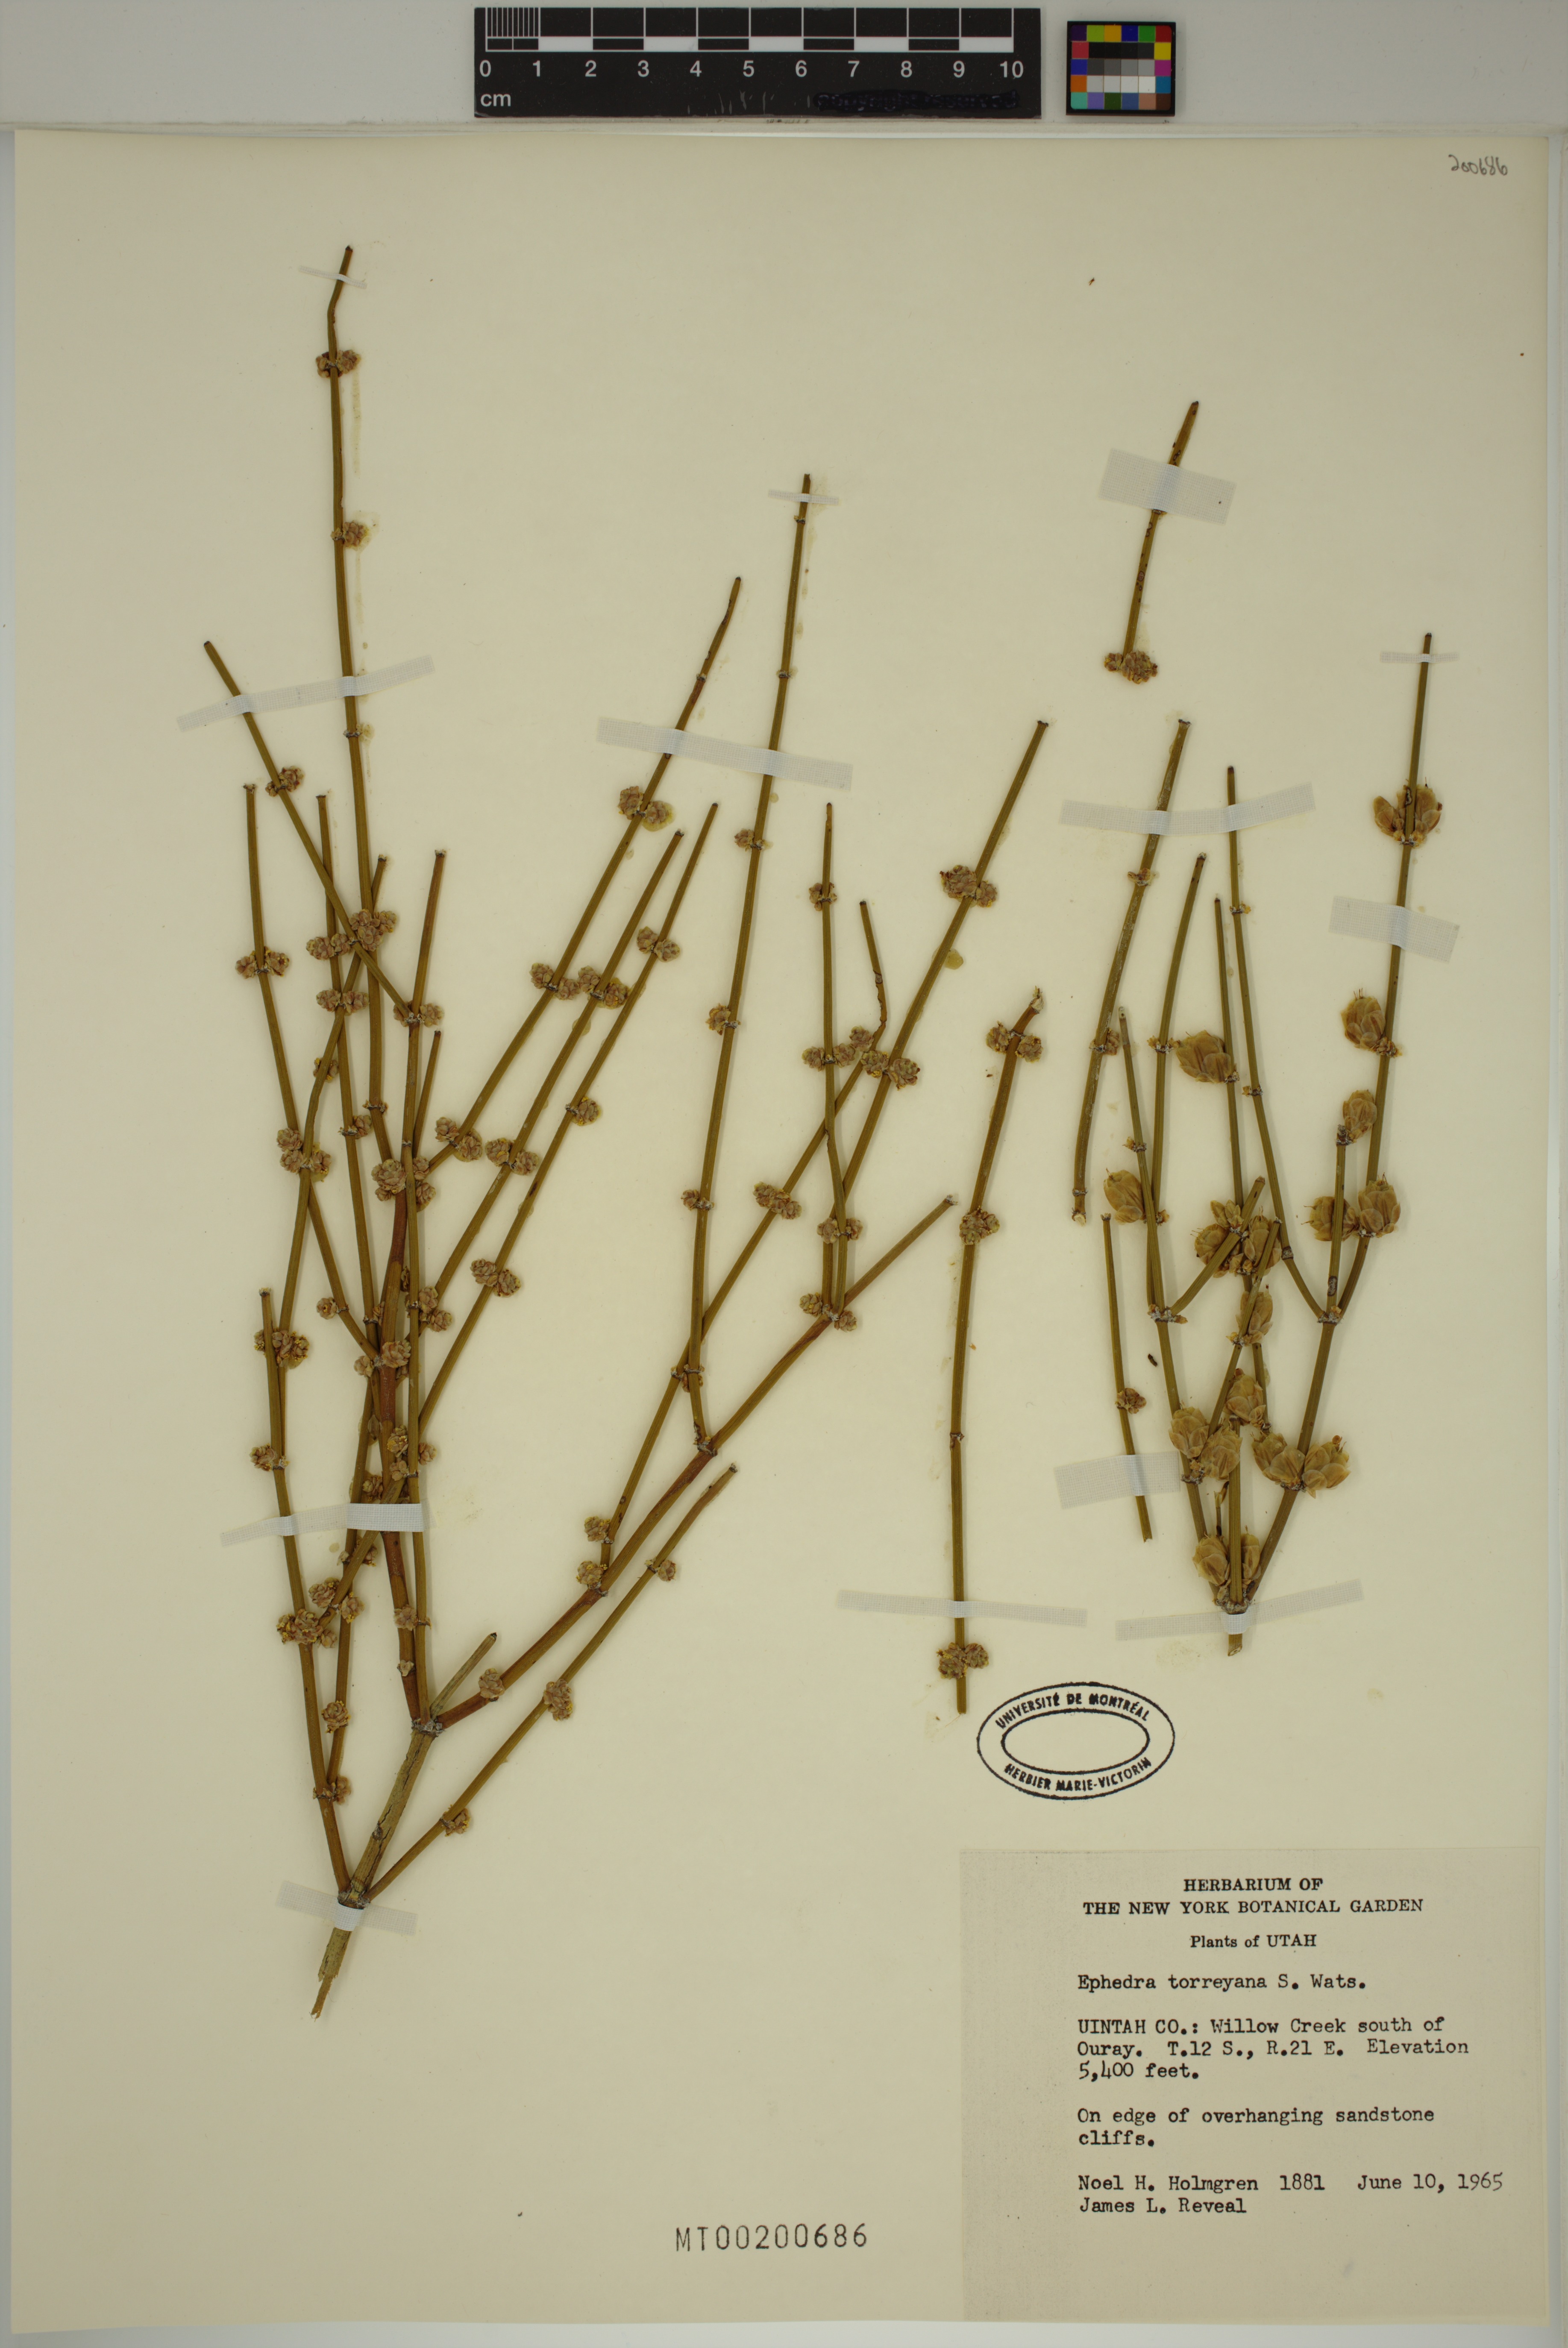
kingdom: Plantae
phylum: Tracheophyta
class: Gnetopsida
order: Ephedrales
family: Ephedraceae
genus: Ephedra
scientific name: Ephedra torreyana
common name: Torrey ephedra
